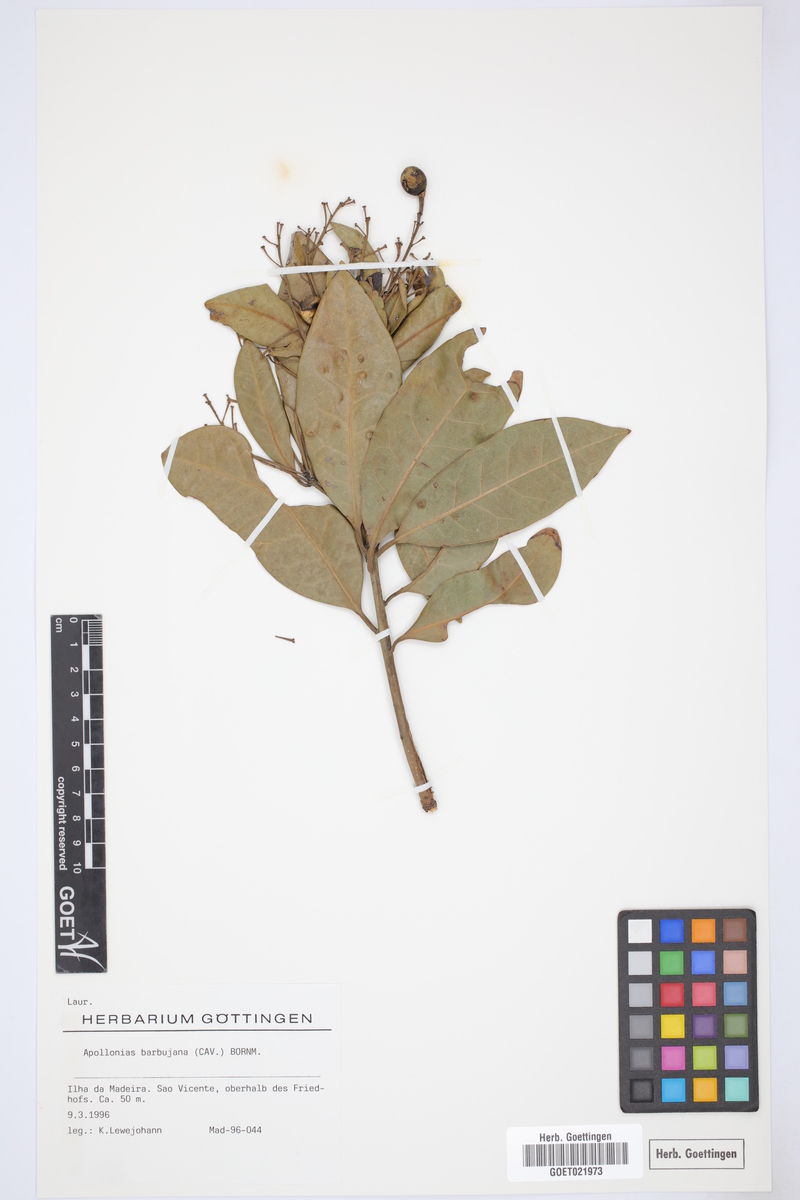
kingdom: Plantae
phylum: Tracheophyta
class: Magnoliopsida
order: Laurales
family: Lauraceae
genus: Apollonias
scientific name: Apollonias barbujana
